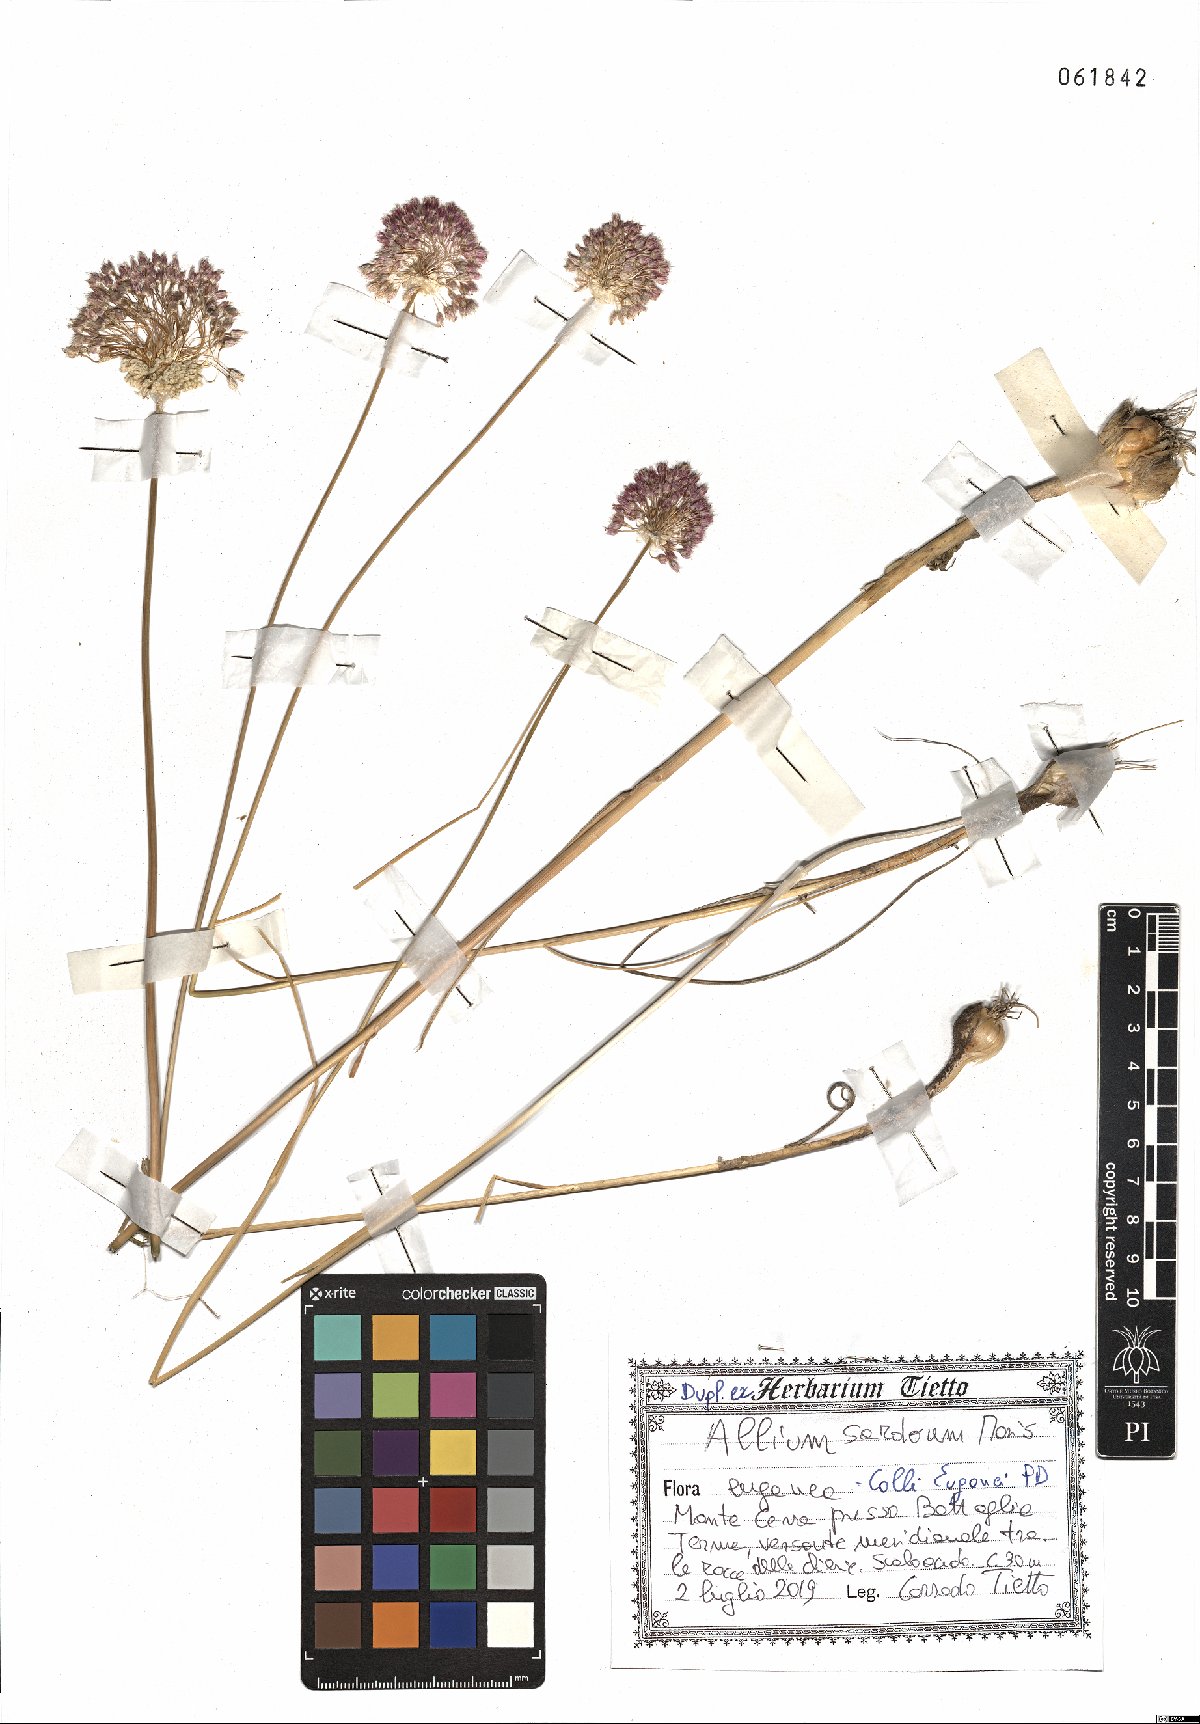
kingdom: Plantae
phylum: Tracheophyta
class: Liliopsida
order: Asparagales
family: Amaryllidaceae
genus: Allium
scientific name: Allium sardoum
